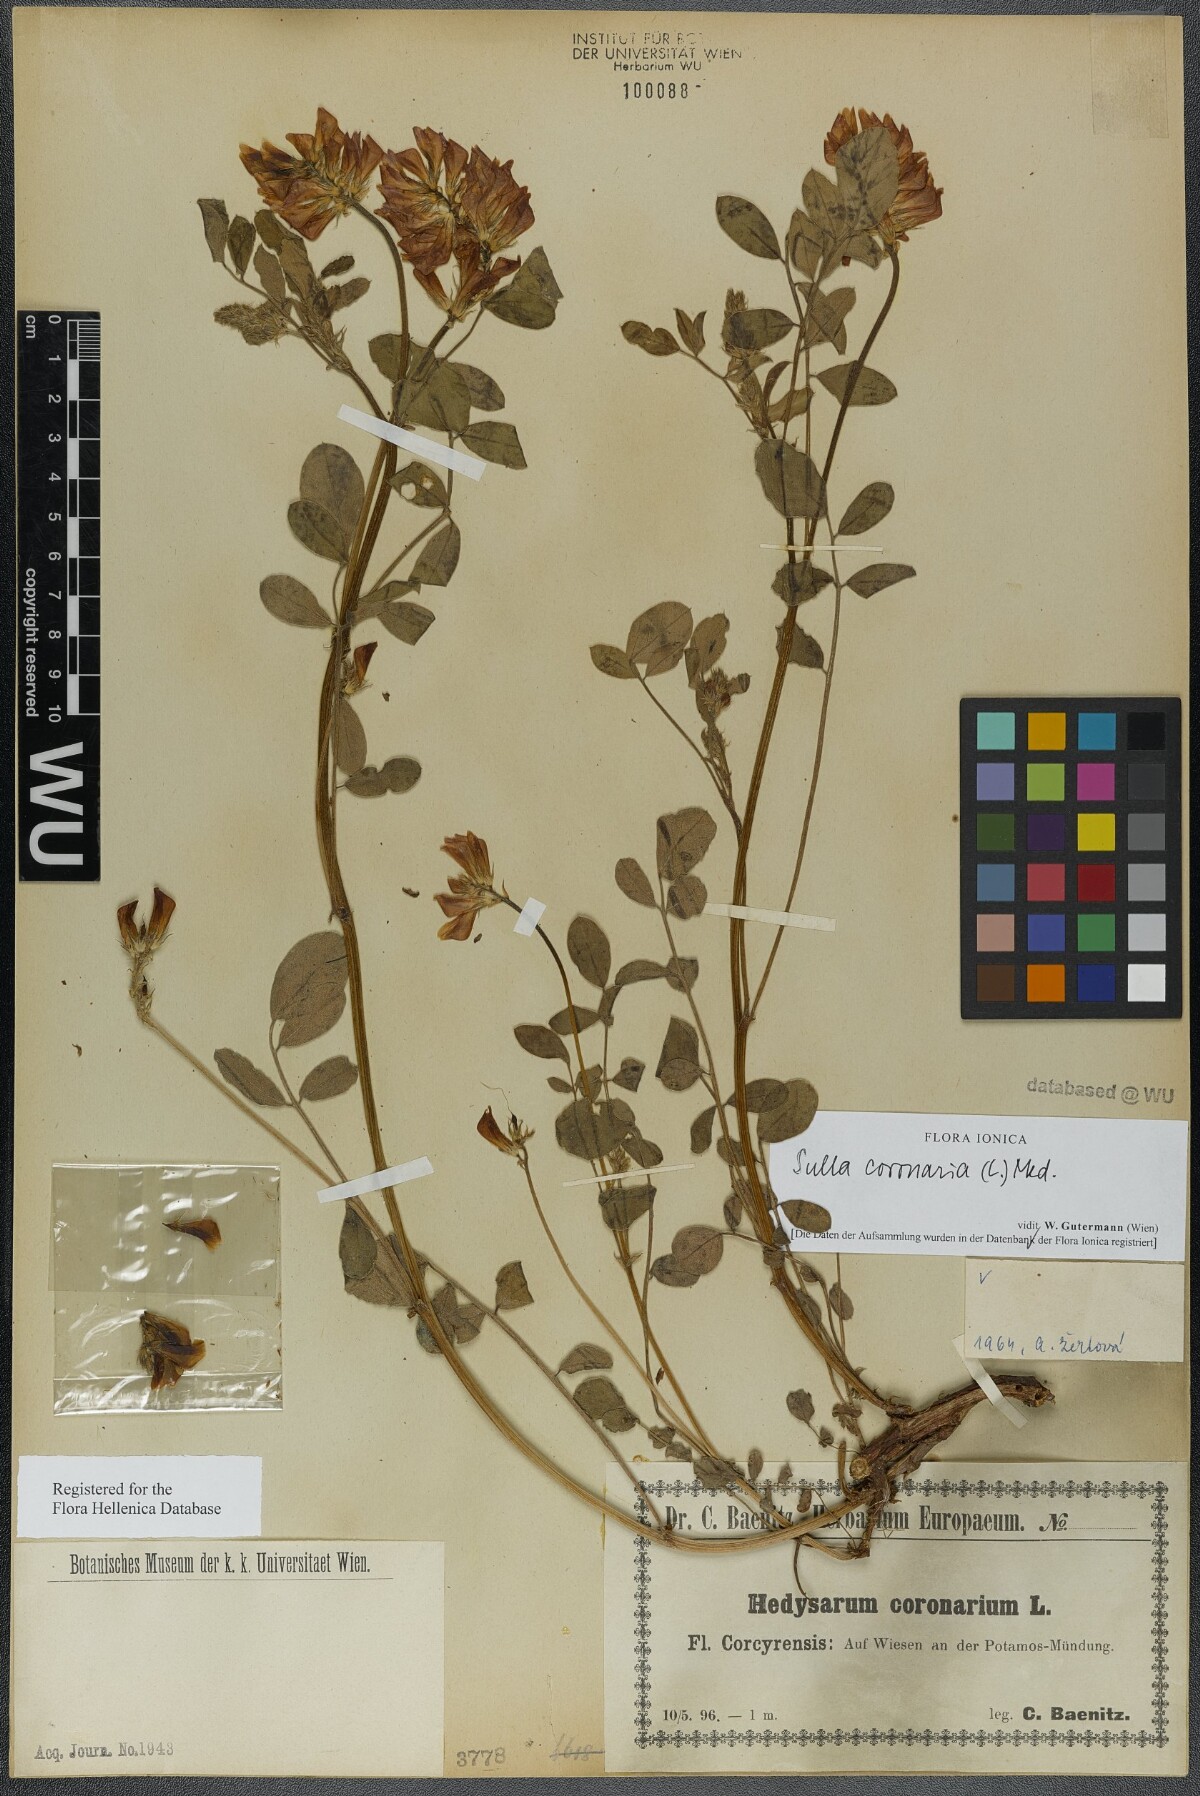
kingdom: Plantae
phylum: Tracheophyta
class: Magnoliopsida
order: Fabales
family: Fabaceae
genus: Sulla
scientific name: Sulla coronaria
